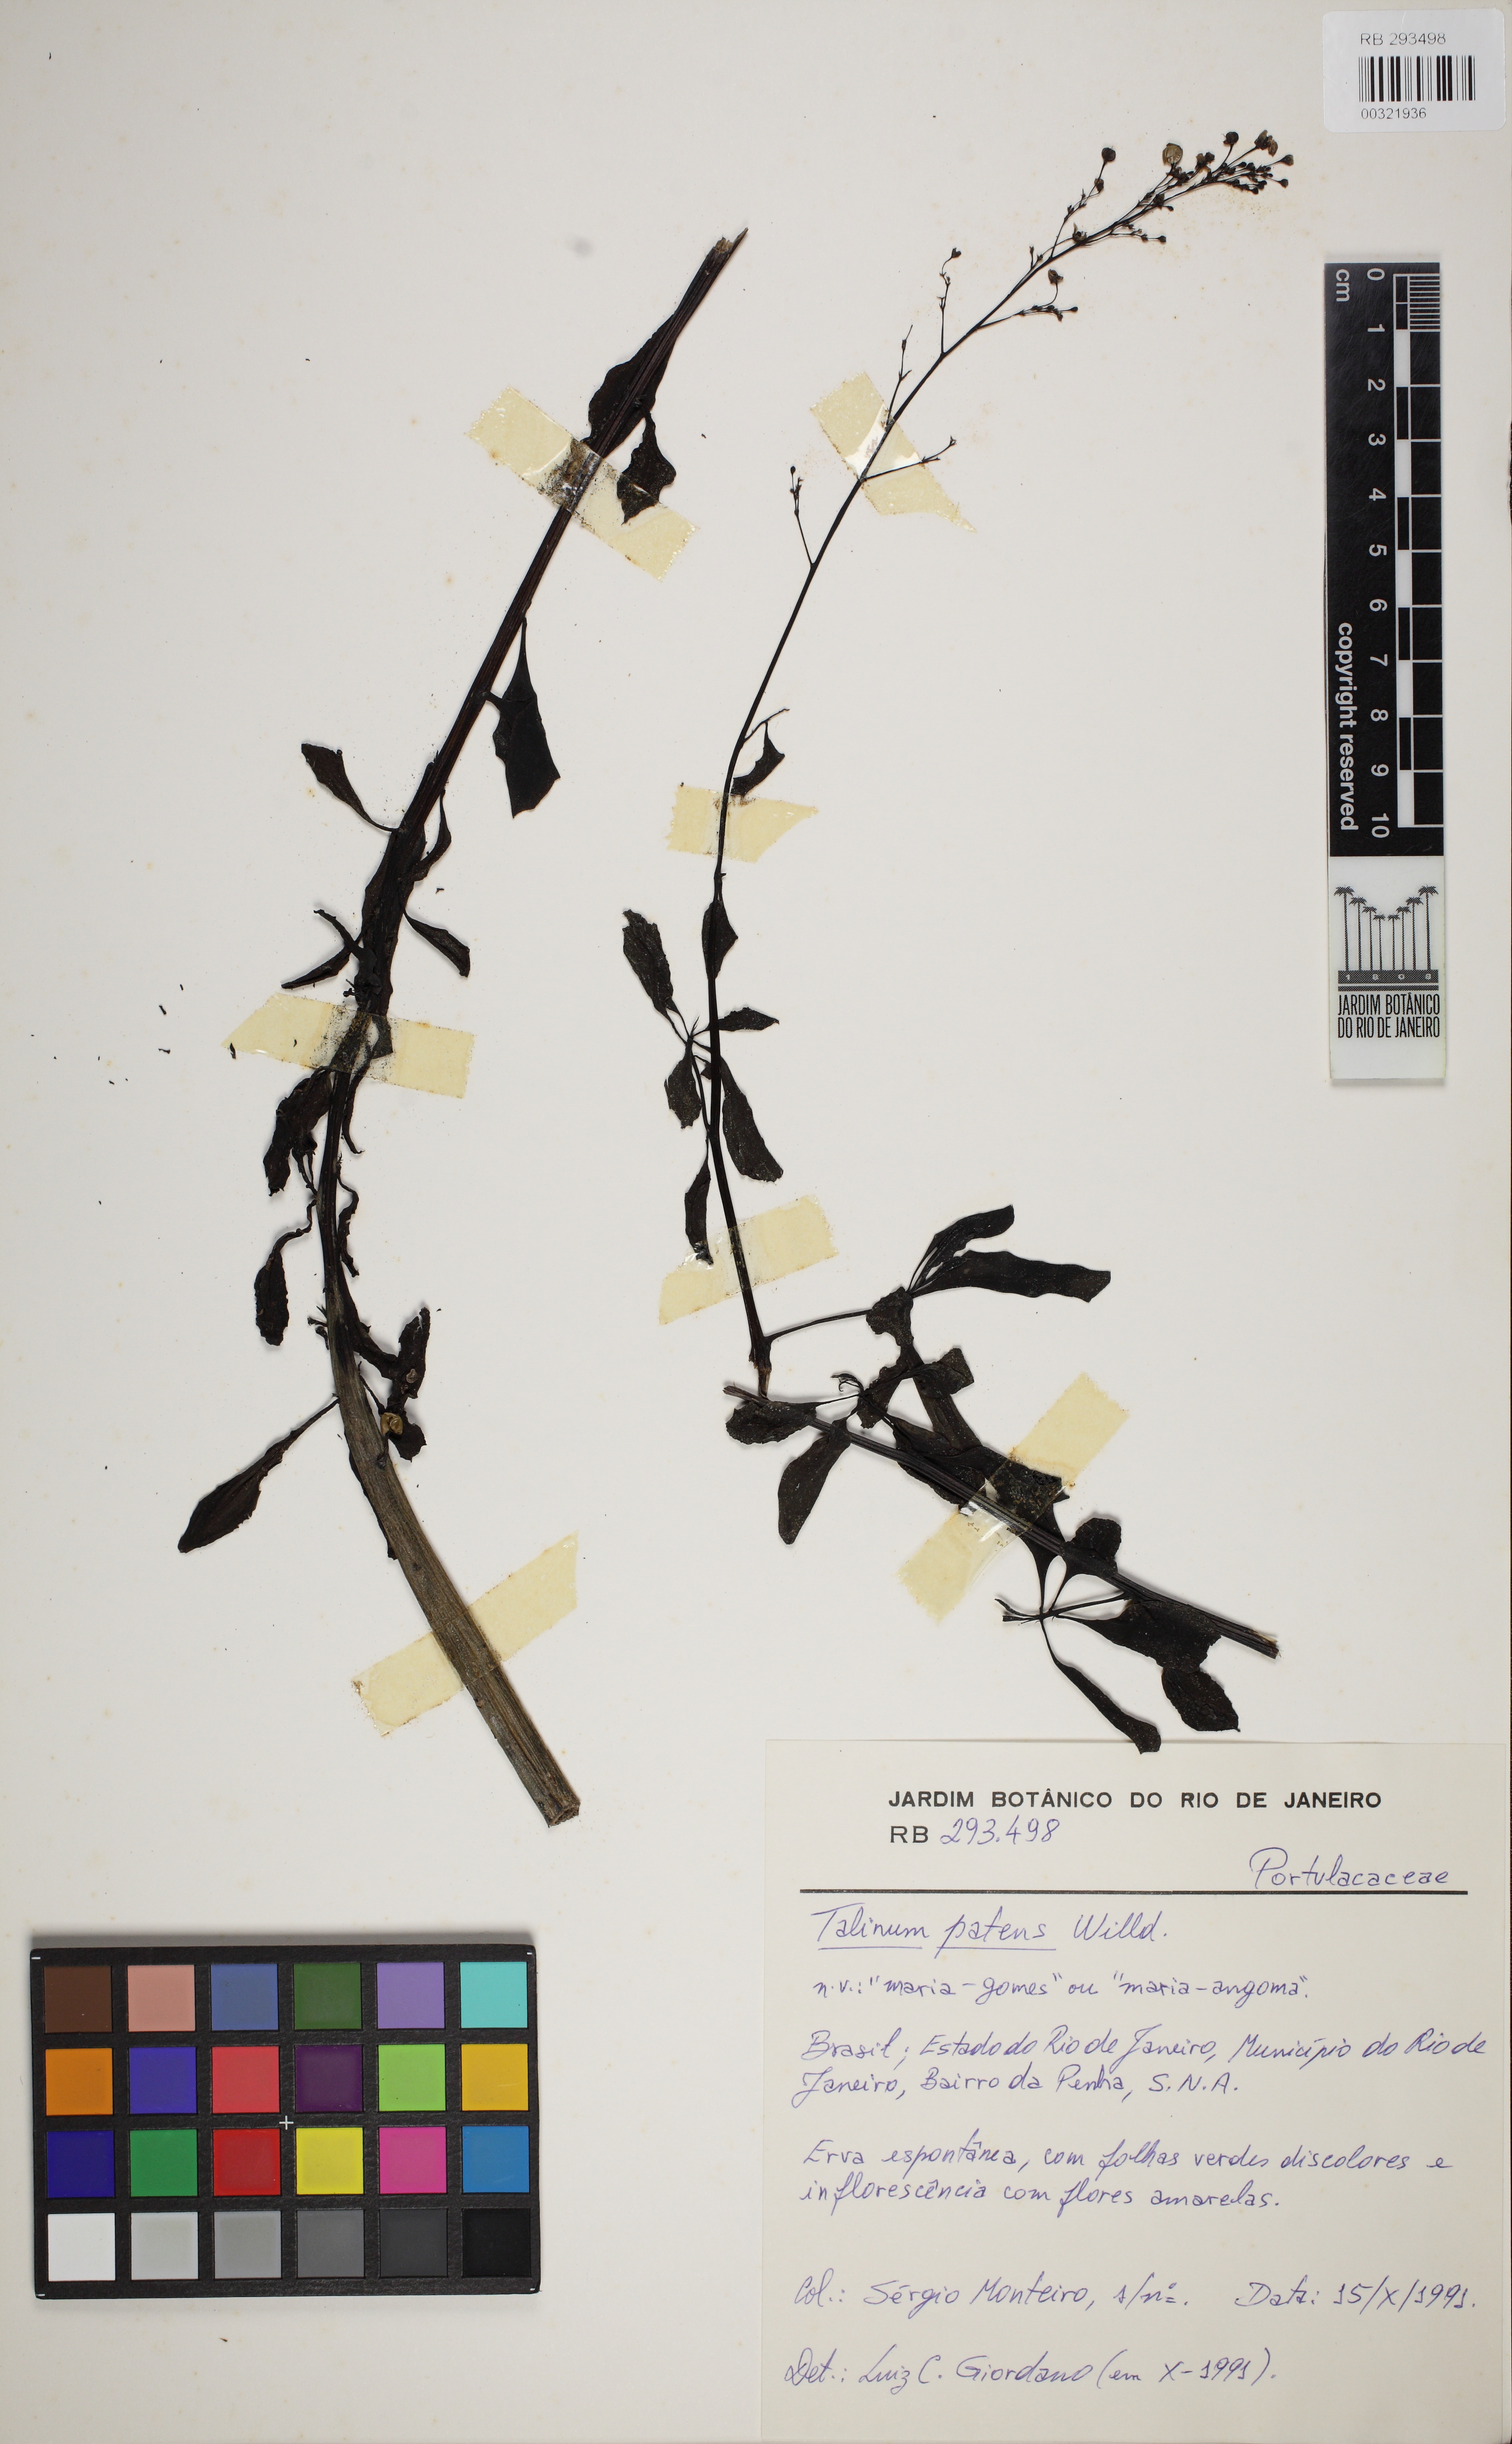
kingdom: Plantae
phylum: Tracheophyta
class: Magnoliopsida
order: Caryophyllales
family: Talinaceae
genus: Talinum
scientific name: Talinum paniculatum
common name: Jewels of opar
